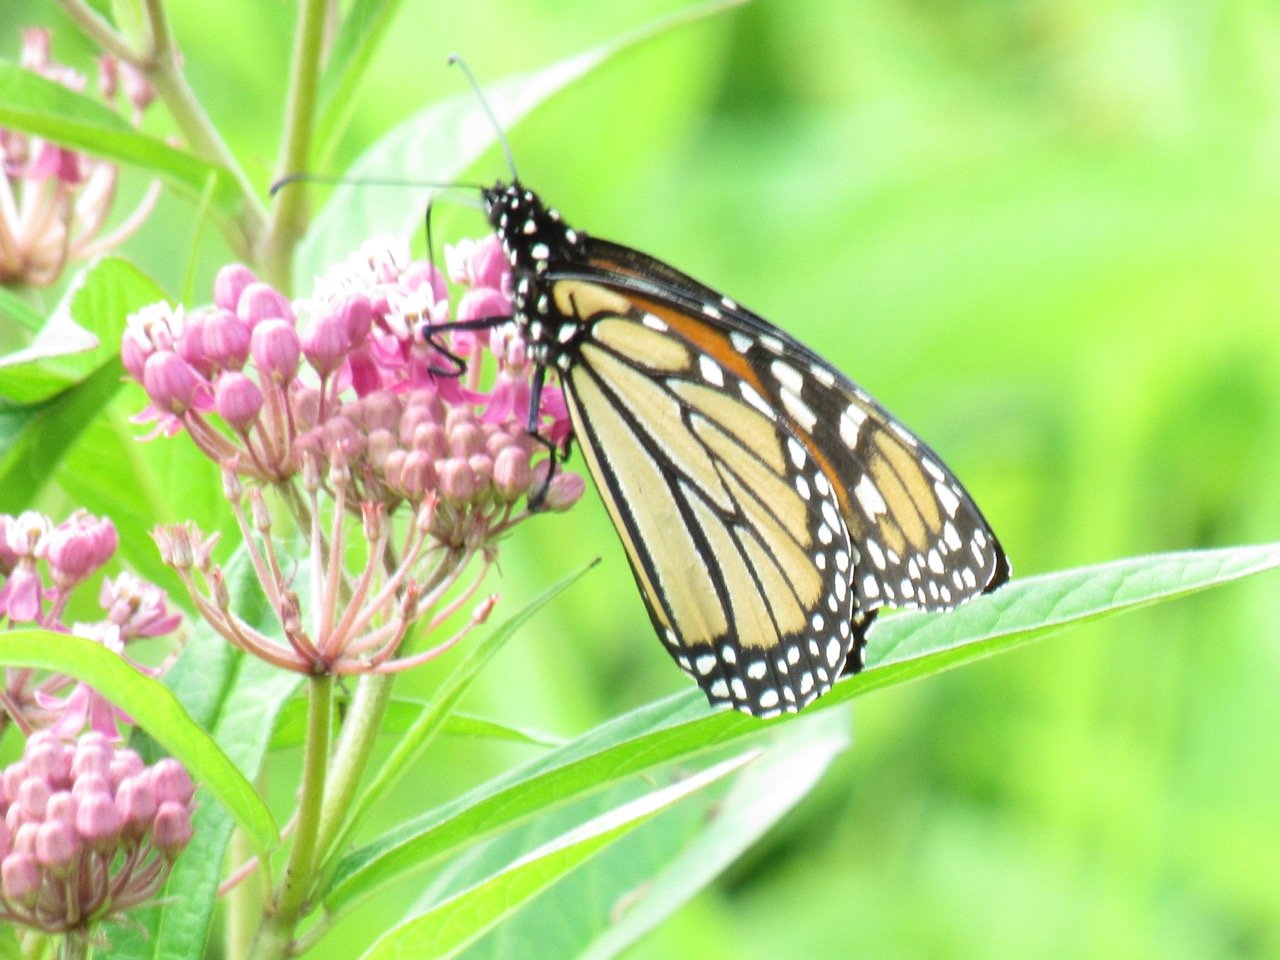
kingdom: Animalia
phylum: Arthropoda
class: Insecta
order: Lepidoptera
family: Nymphalidae
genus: Danaus
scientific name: Danaus plexippus
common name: Monarch
